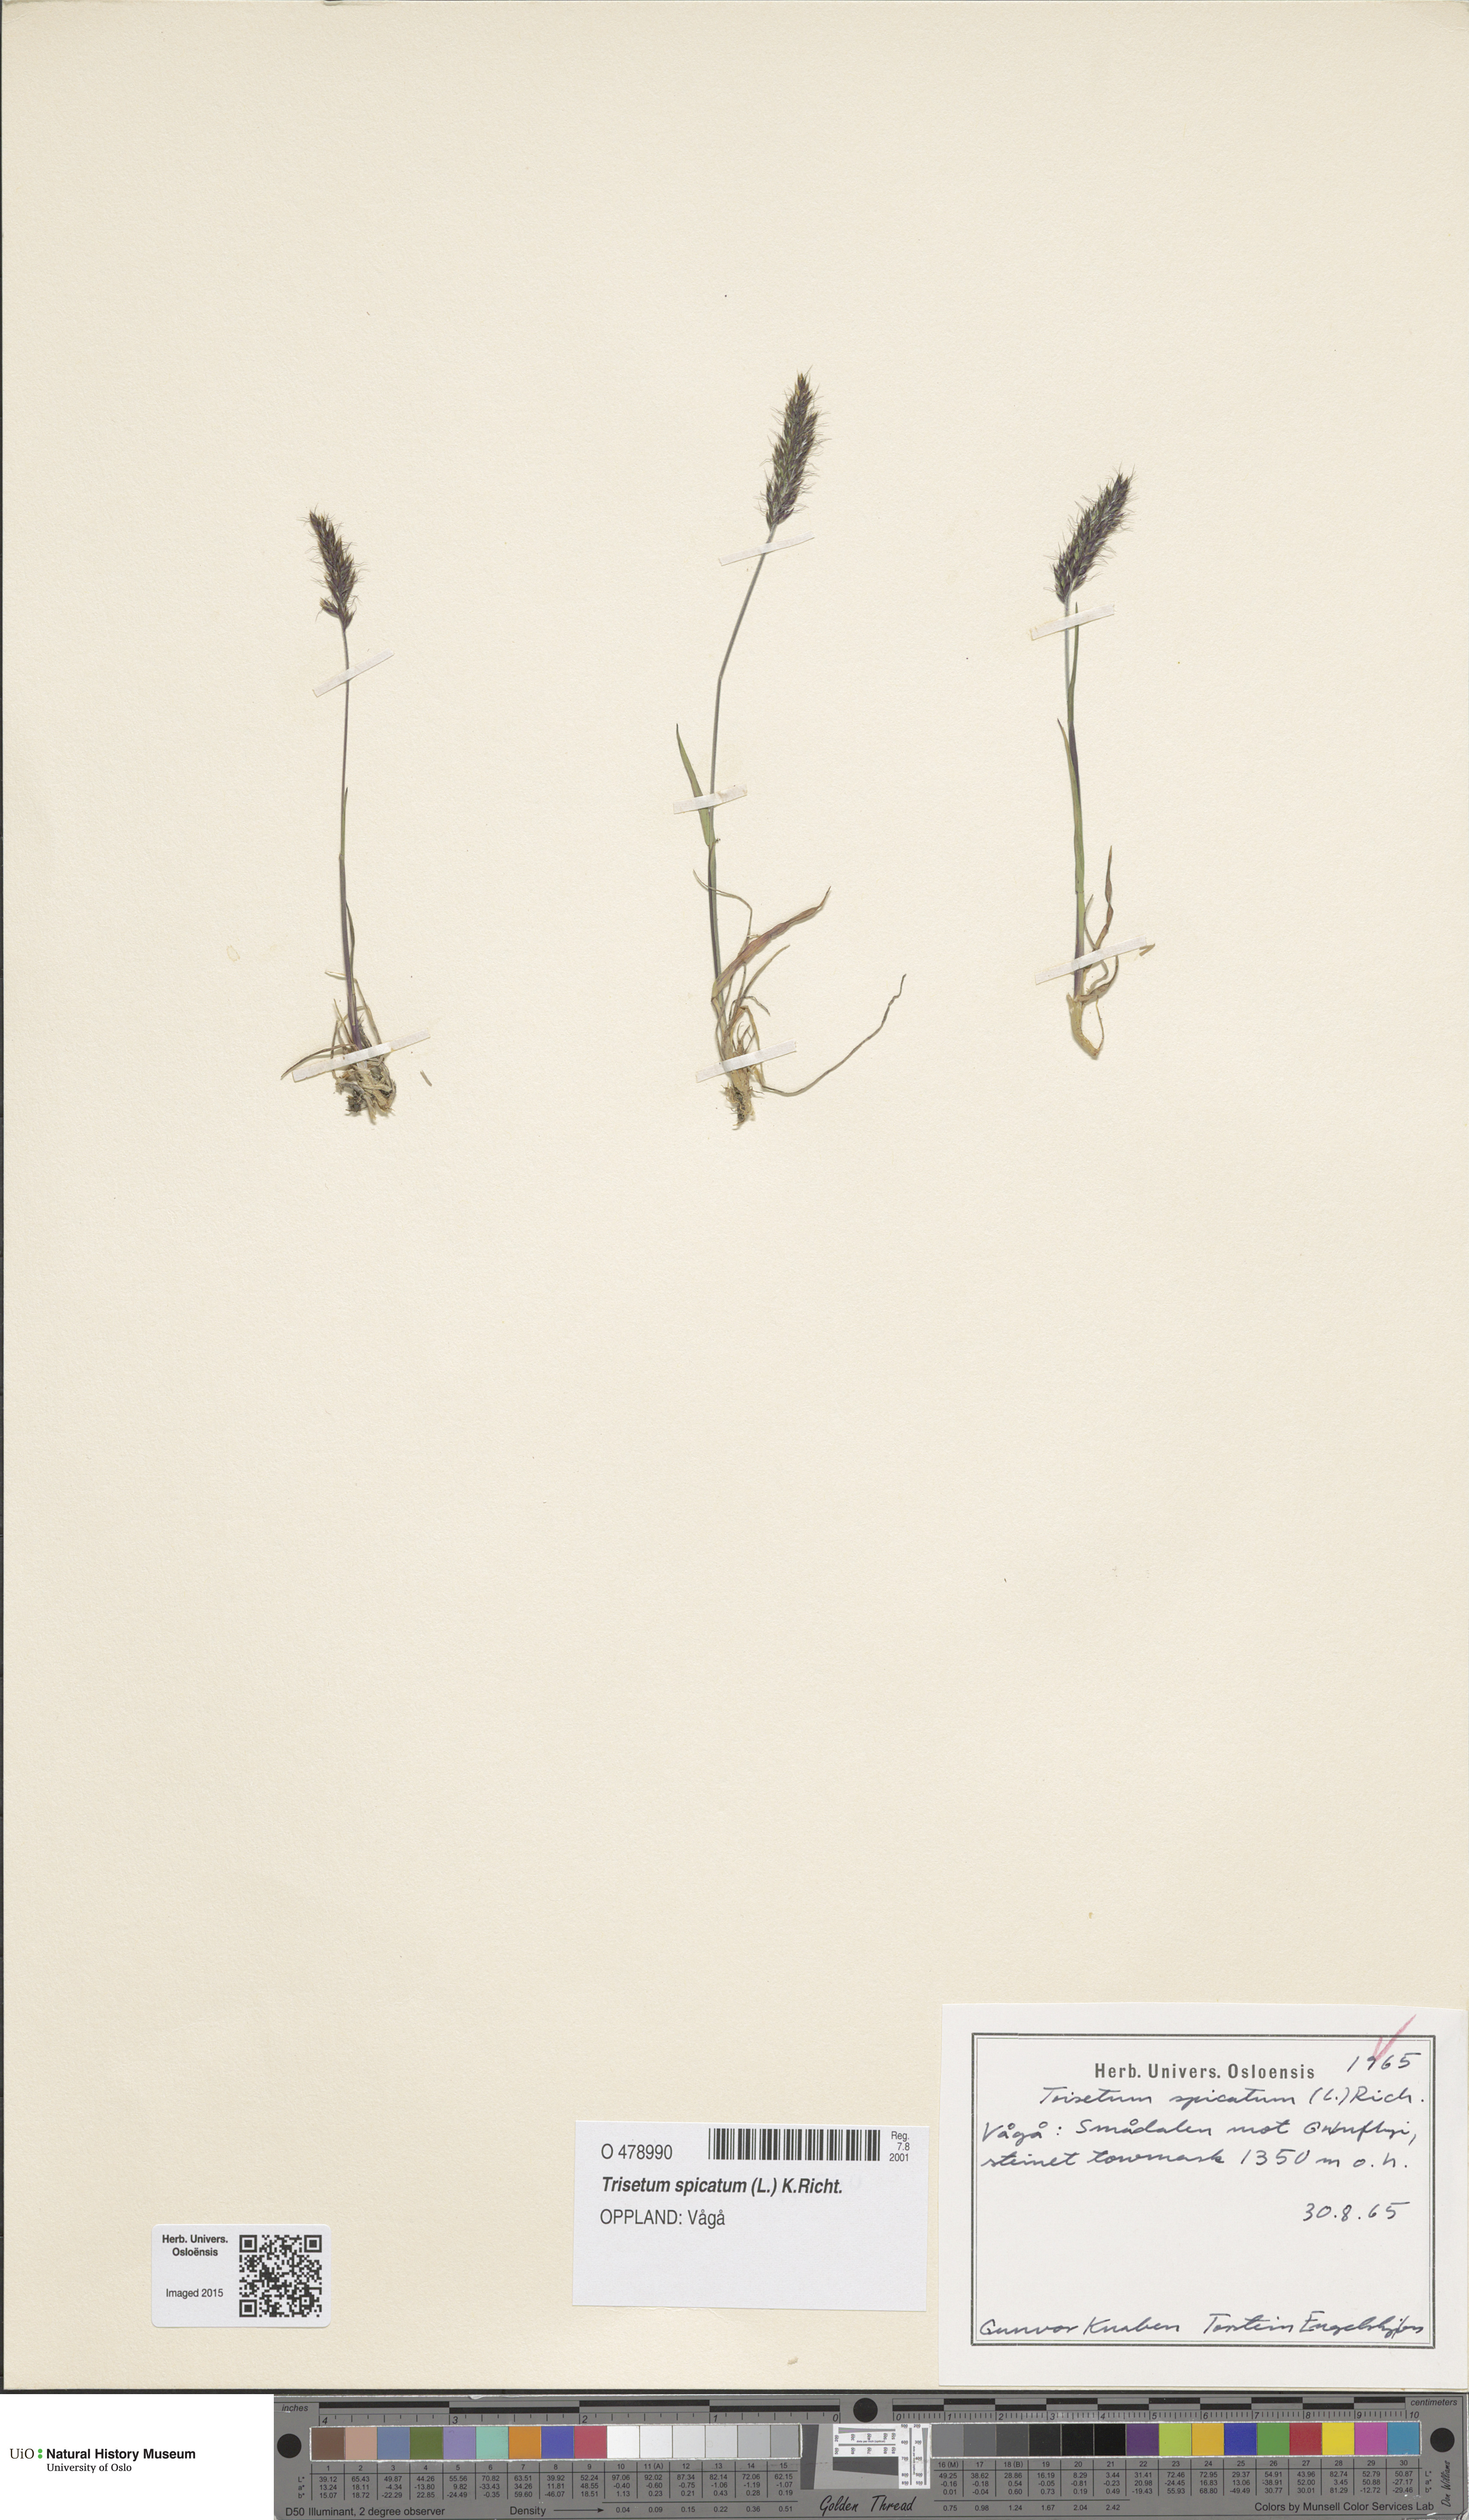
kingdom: Plantae
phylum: Tracheophyta
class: Liliopsida
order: Poales
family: Poaceae
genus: Koeleria
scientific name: Koeleria spicata
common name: Mountain trisetum
